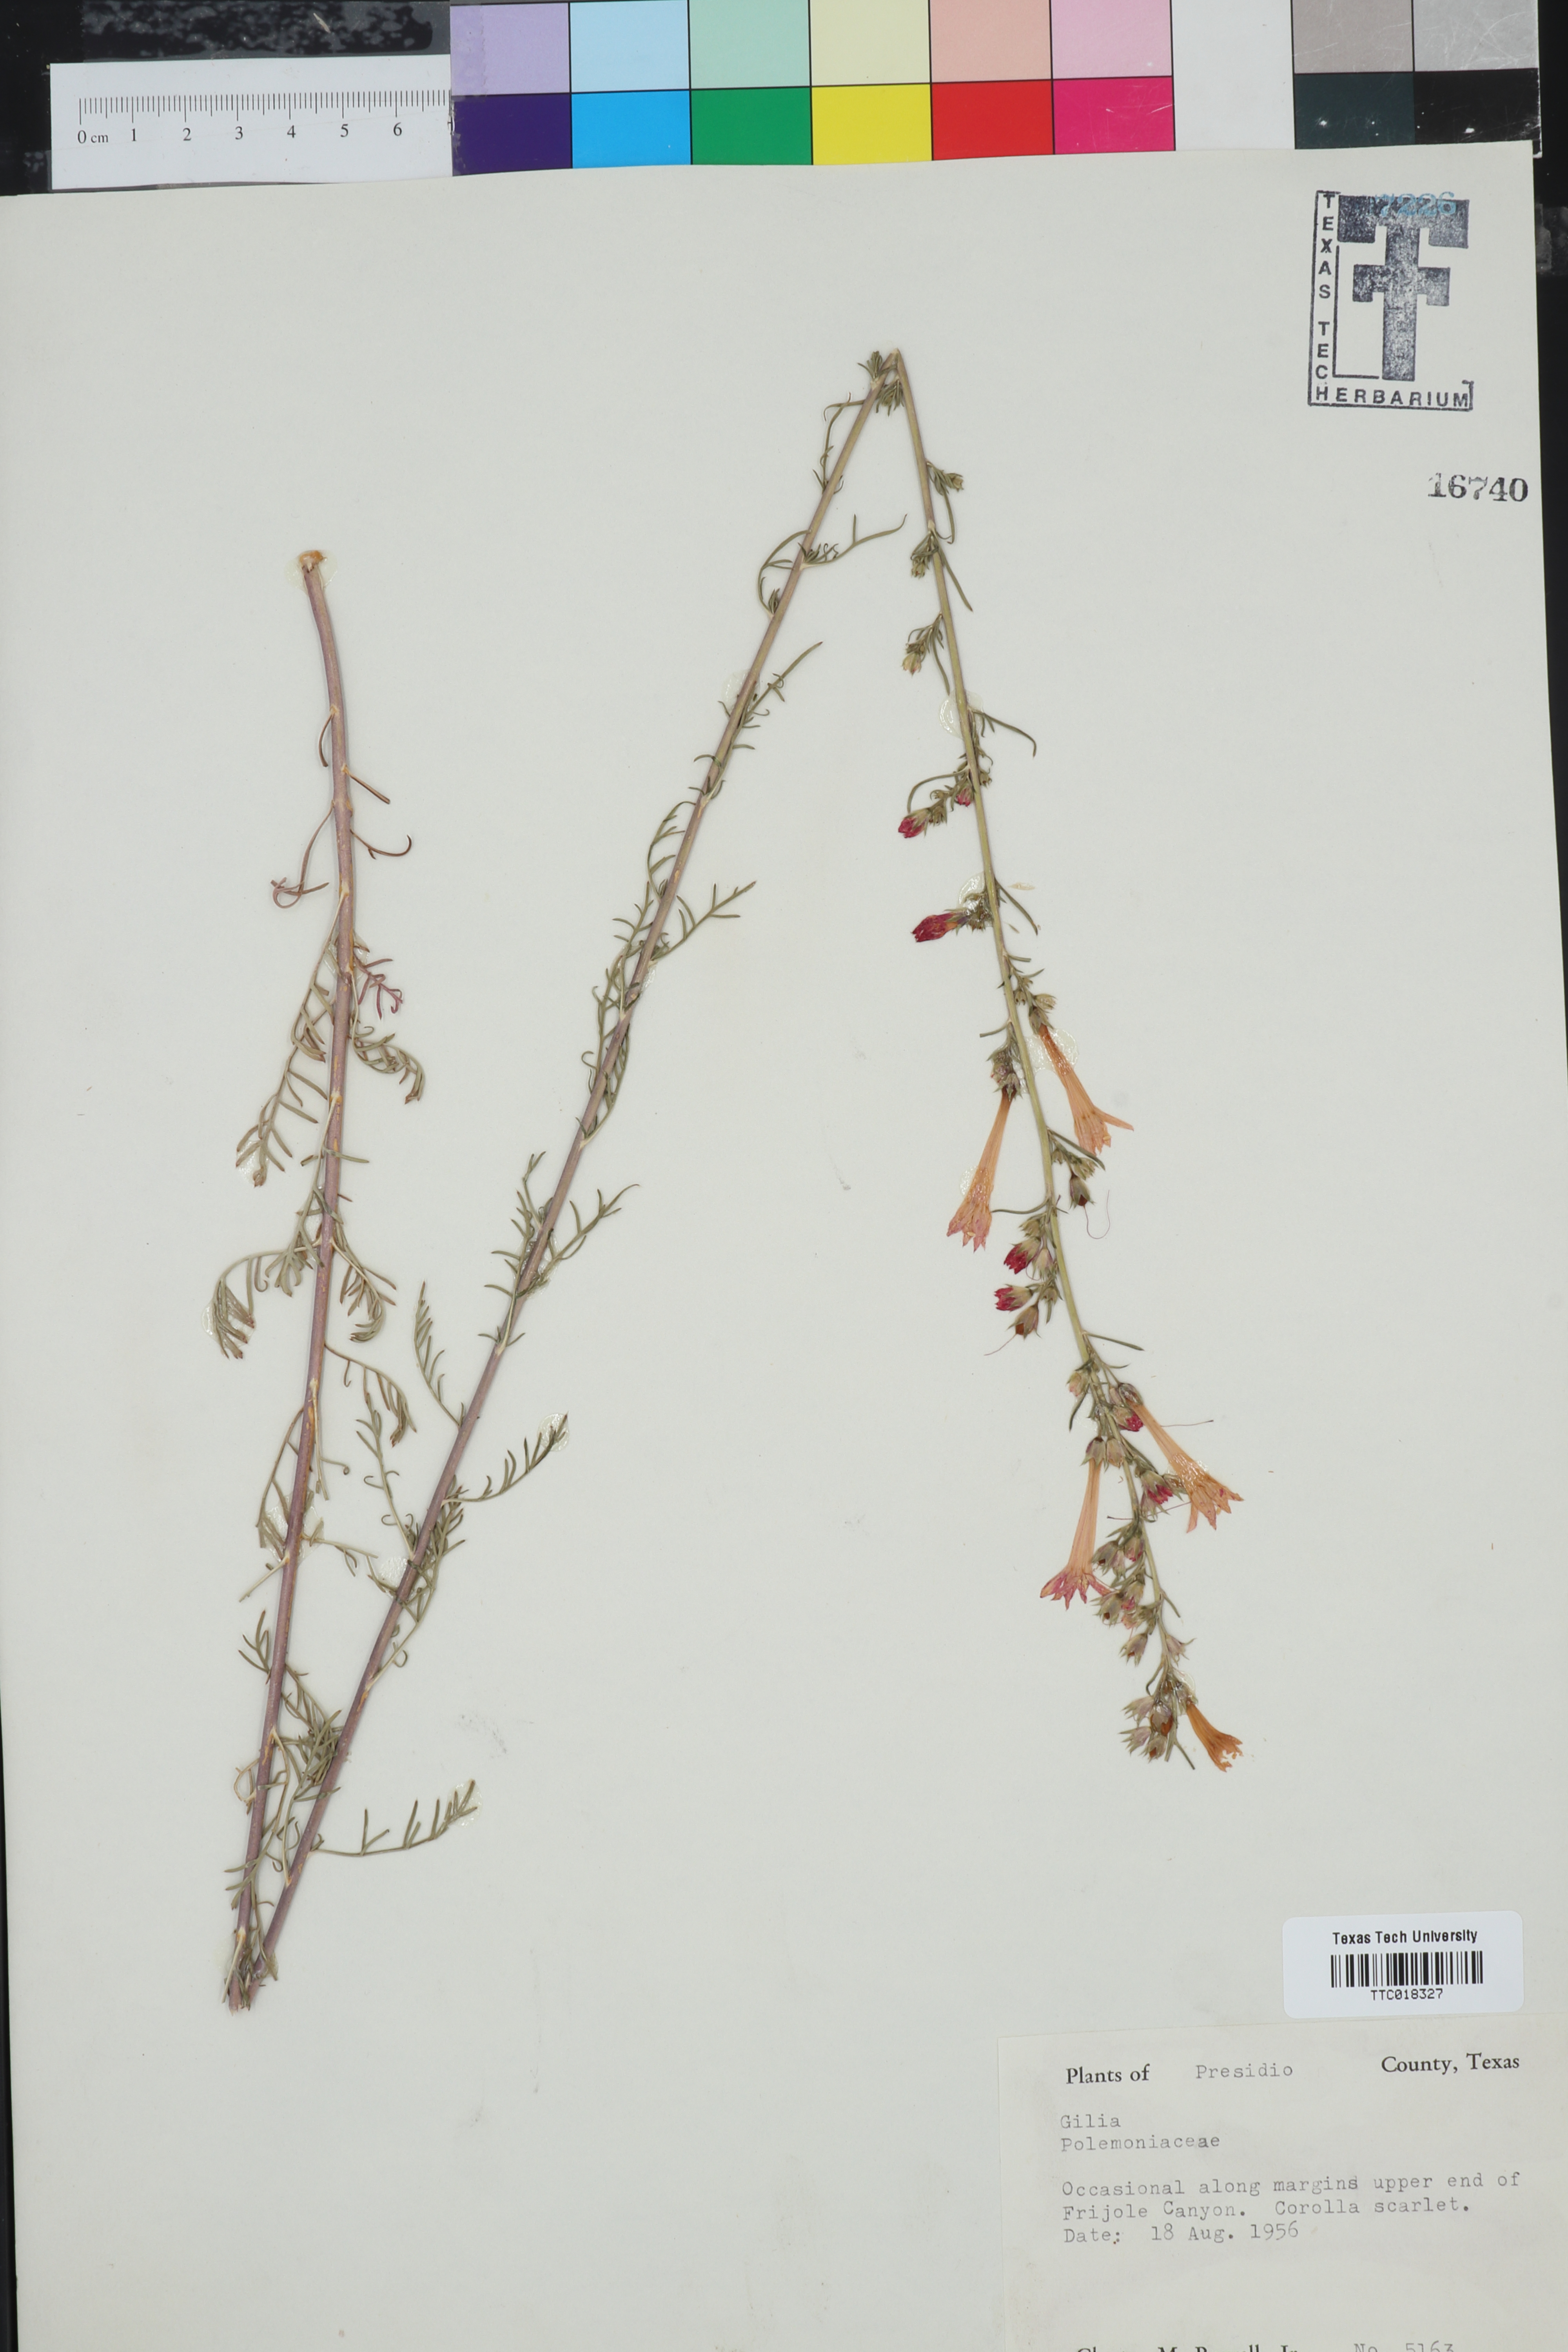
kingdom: Plantae
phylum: Tracheophyta
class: Magnoliopsida
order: Ericales
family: Polemoniaceae
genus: Gilia
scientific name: Gilia
